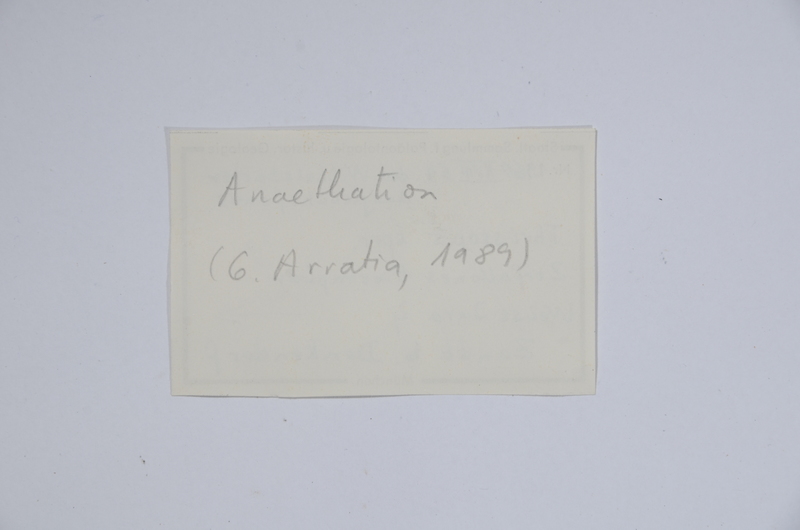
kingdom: Animalia
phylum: Chordata
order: Elopiformes
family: Anaethalionidae
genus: Anaethalion
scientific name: Anaethalion
